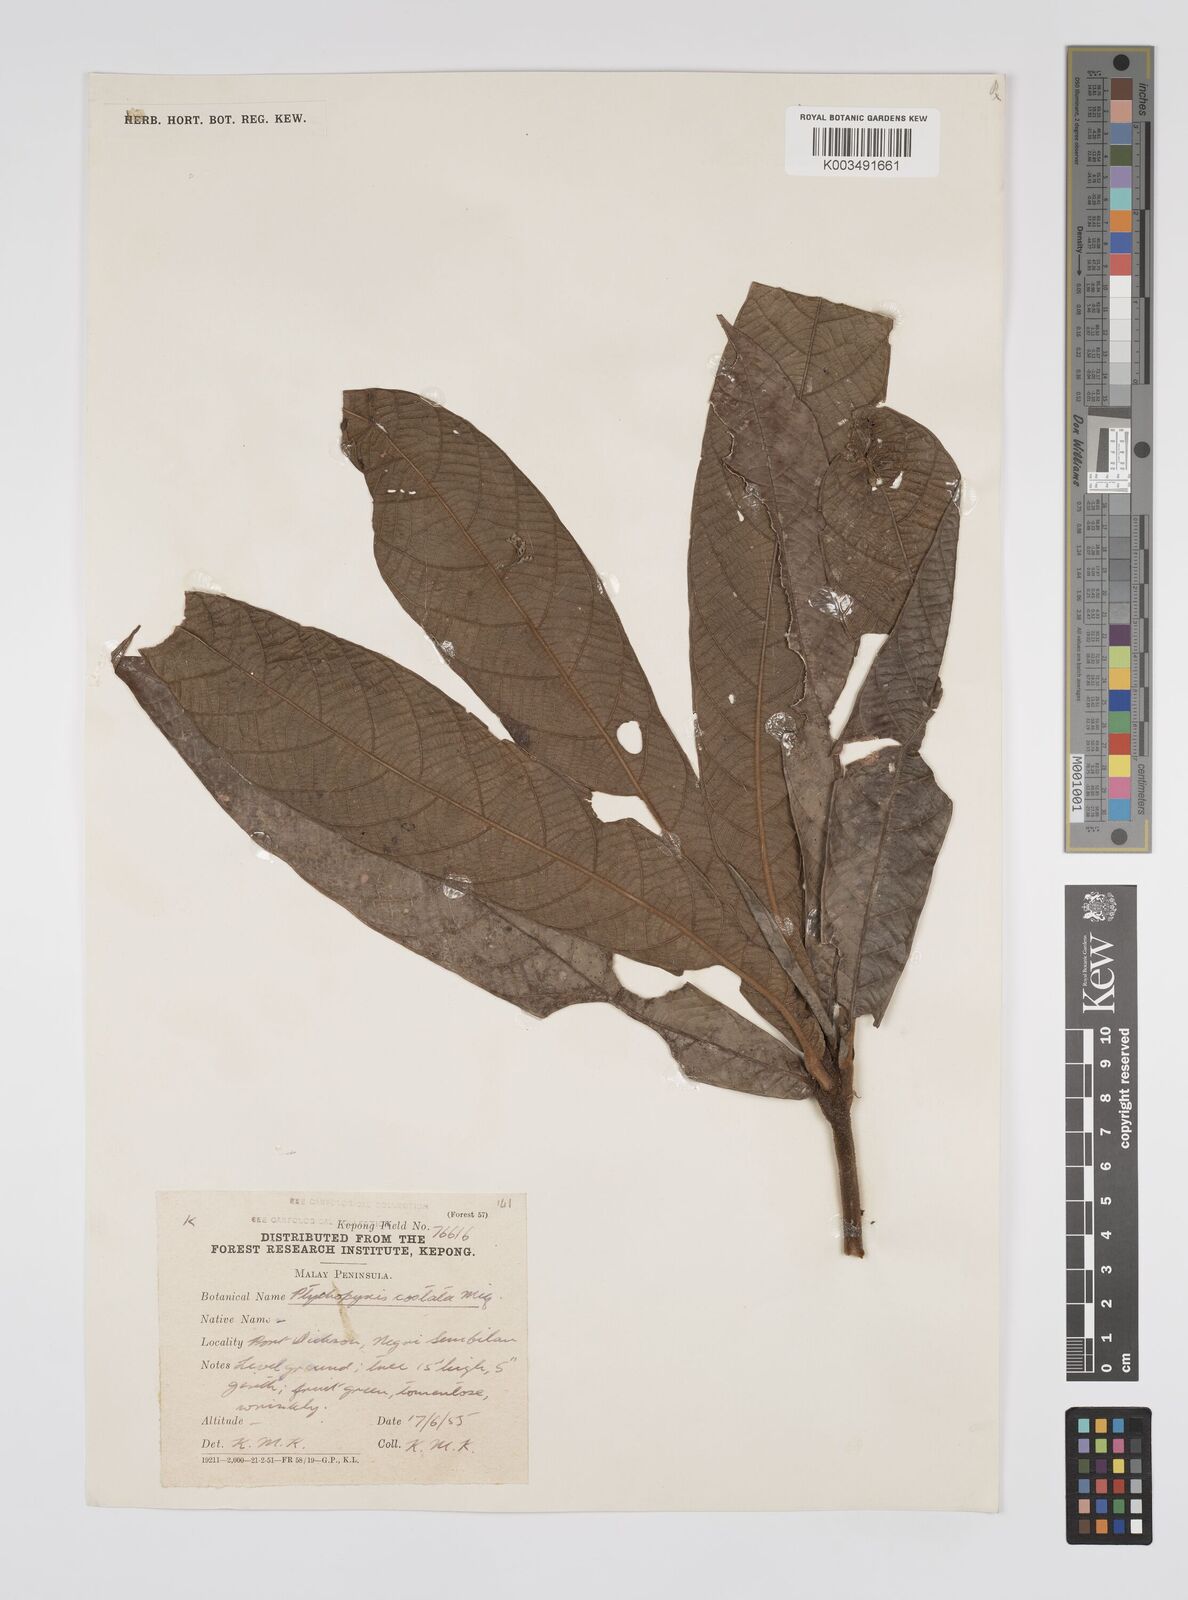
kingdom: Plantae
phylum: Tracheophyta
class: Magnoliopsida
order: Malpighiales
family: Euphorbiaceae
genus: Ptychopyxis
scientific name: Ptychopyxis costata
